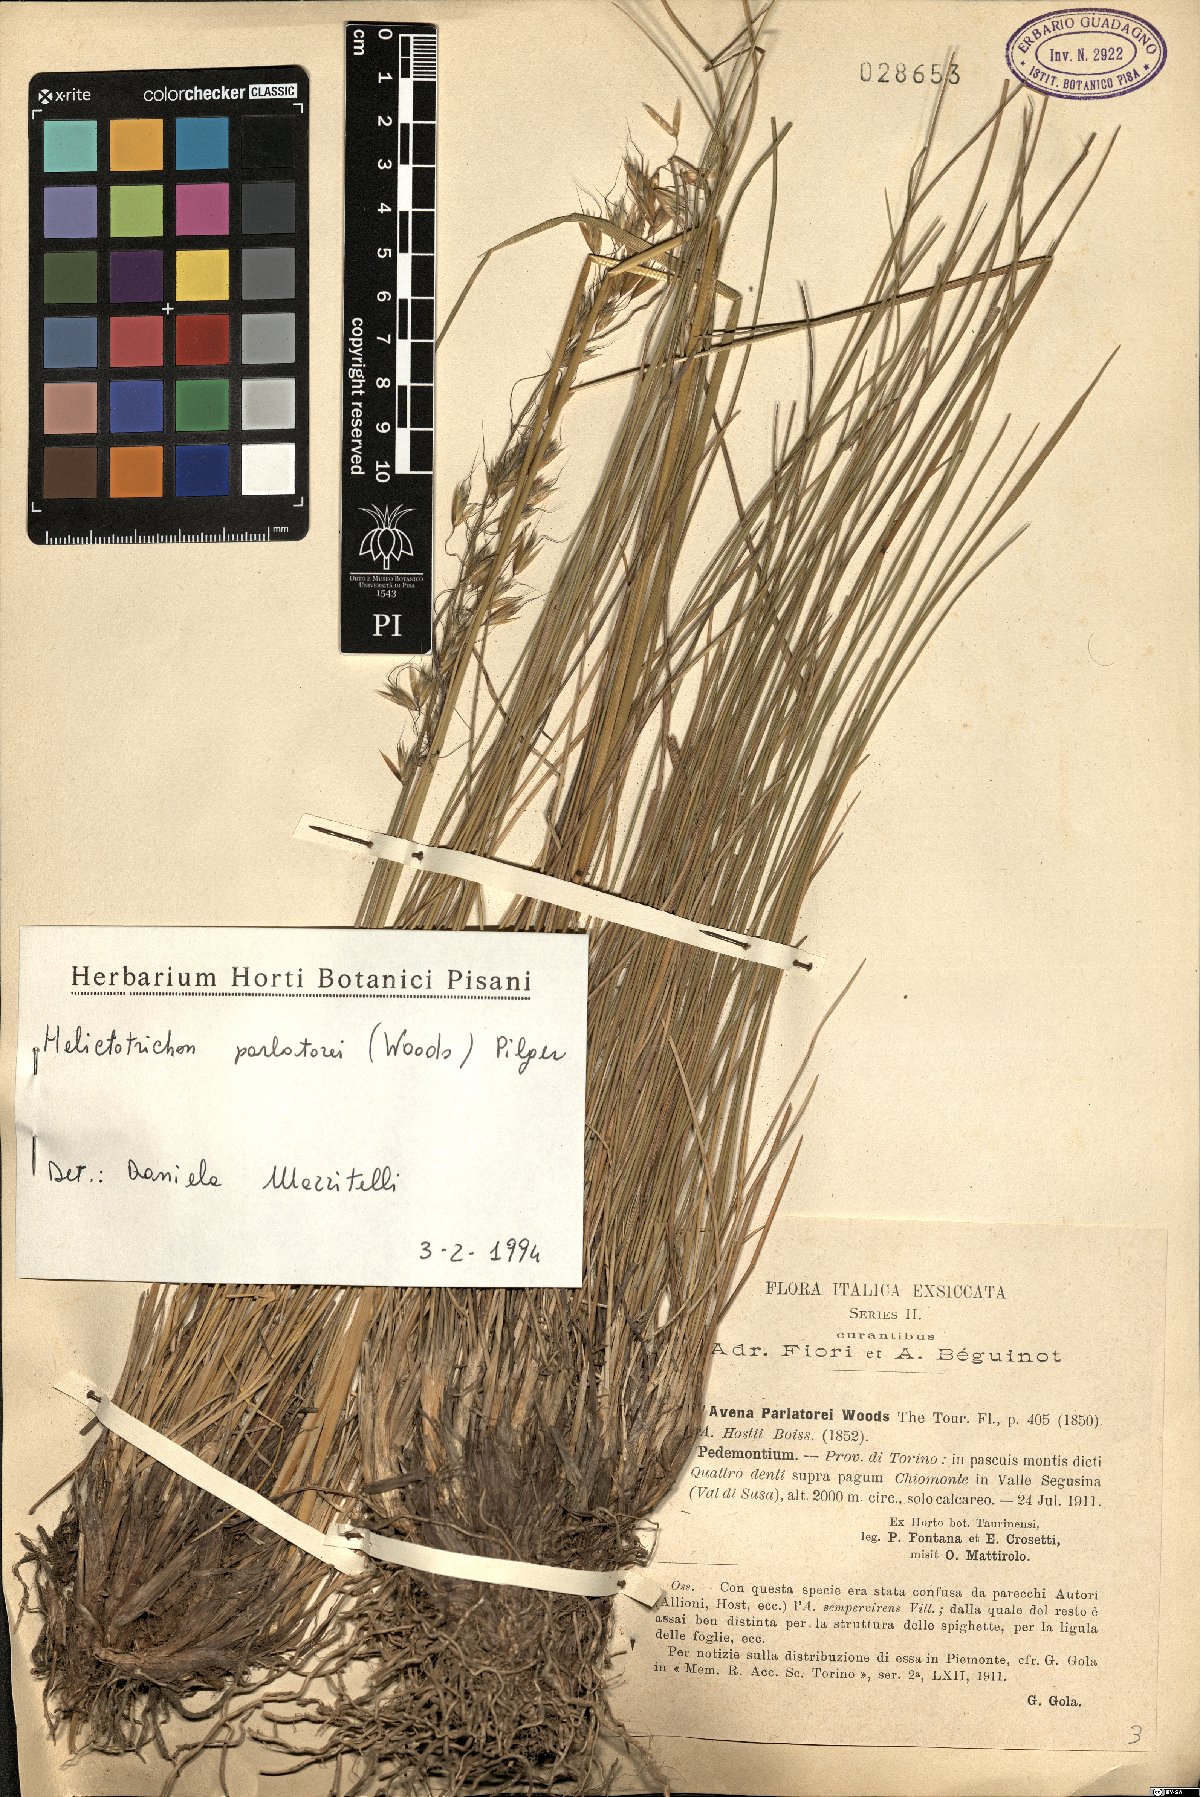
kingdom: Plantae
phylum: Tracheophyta
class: Liliopsida
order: Poales
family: Poaceae
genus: Helictotrichon
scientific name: Helictotrichon parlatorei
